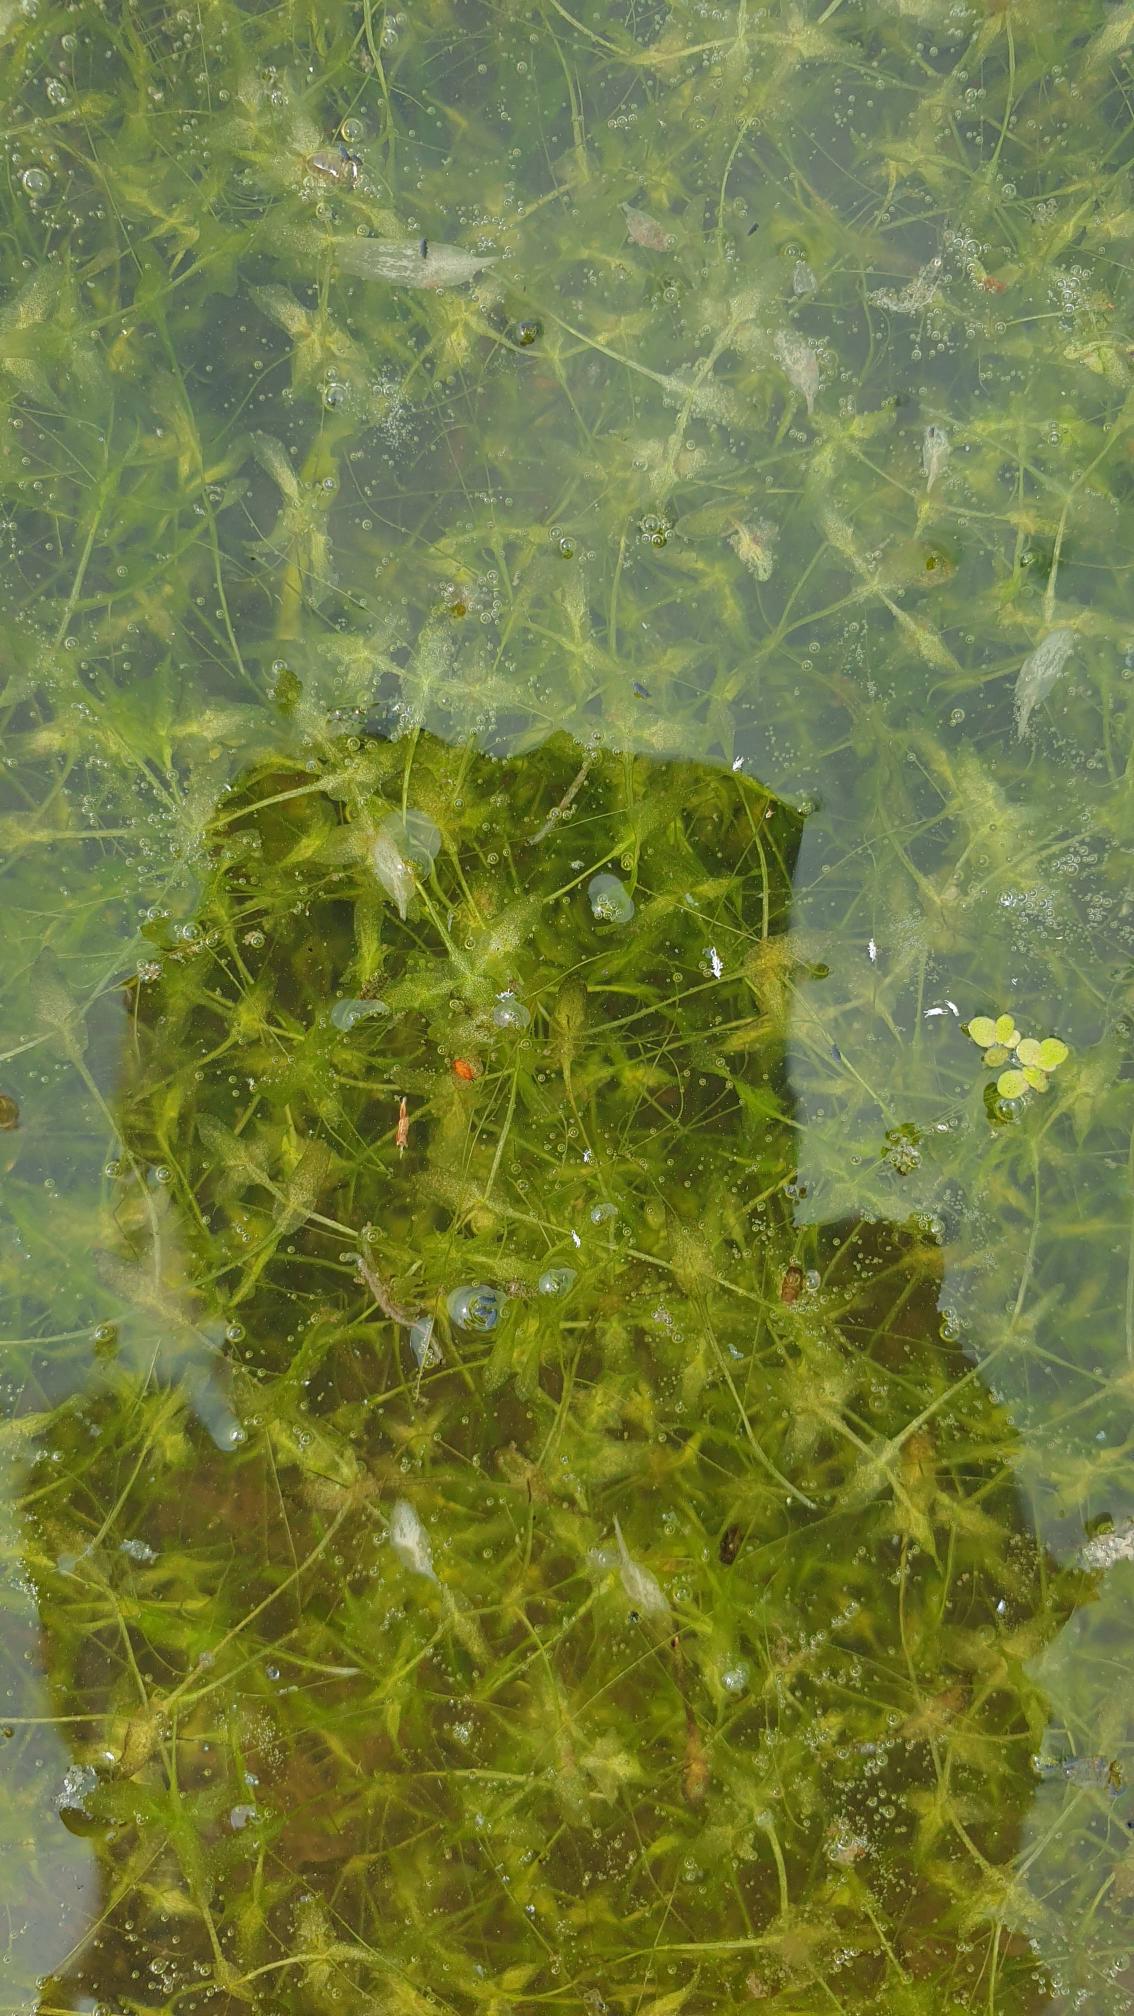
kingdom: Plantae
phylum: Tracheophyta
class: Liliopsida
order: Alismatales
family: Araceae
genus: Lemna
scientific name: Lemna trisulca
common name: Kors-andemad
